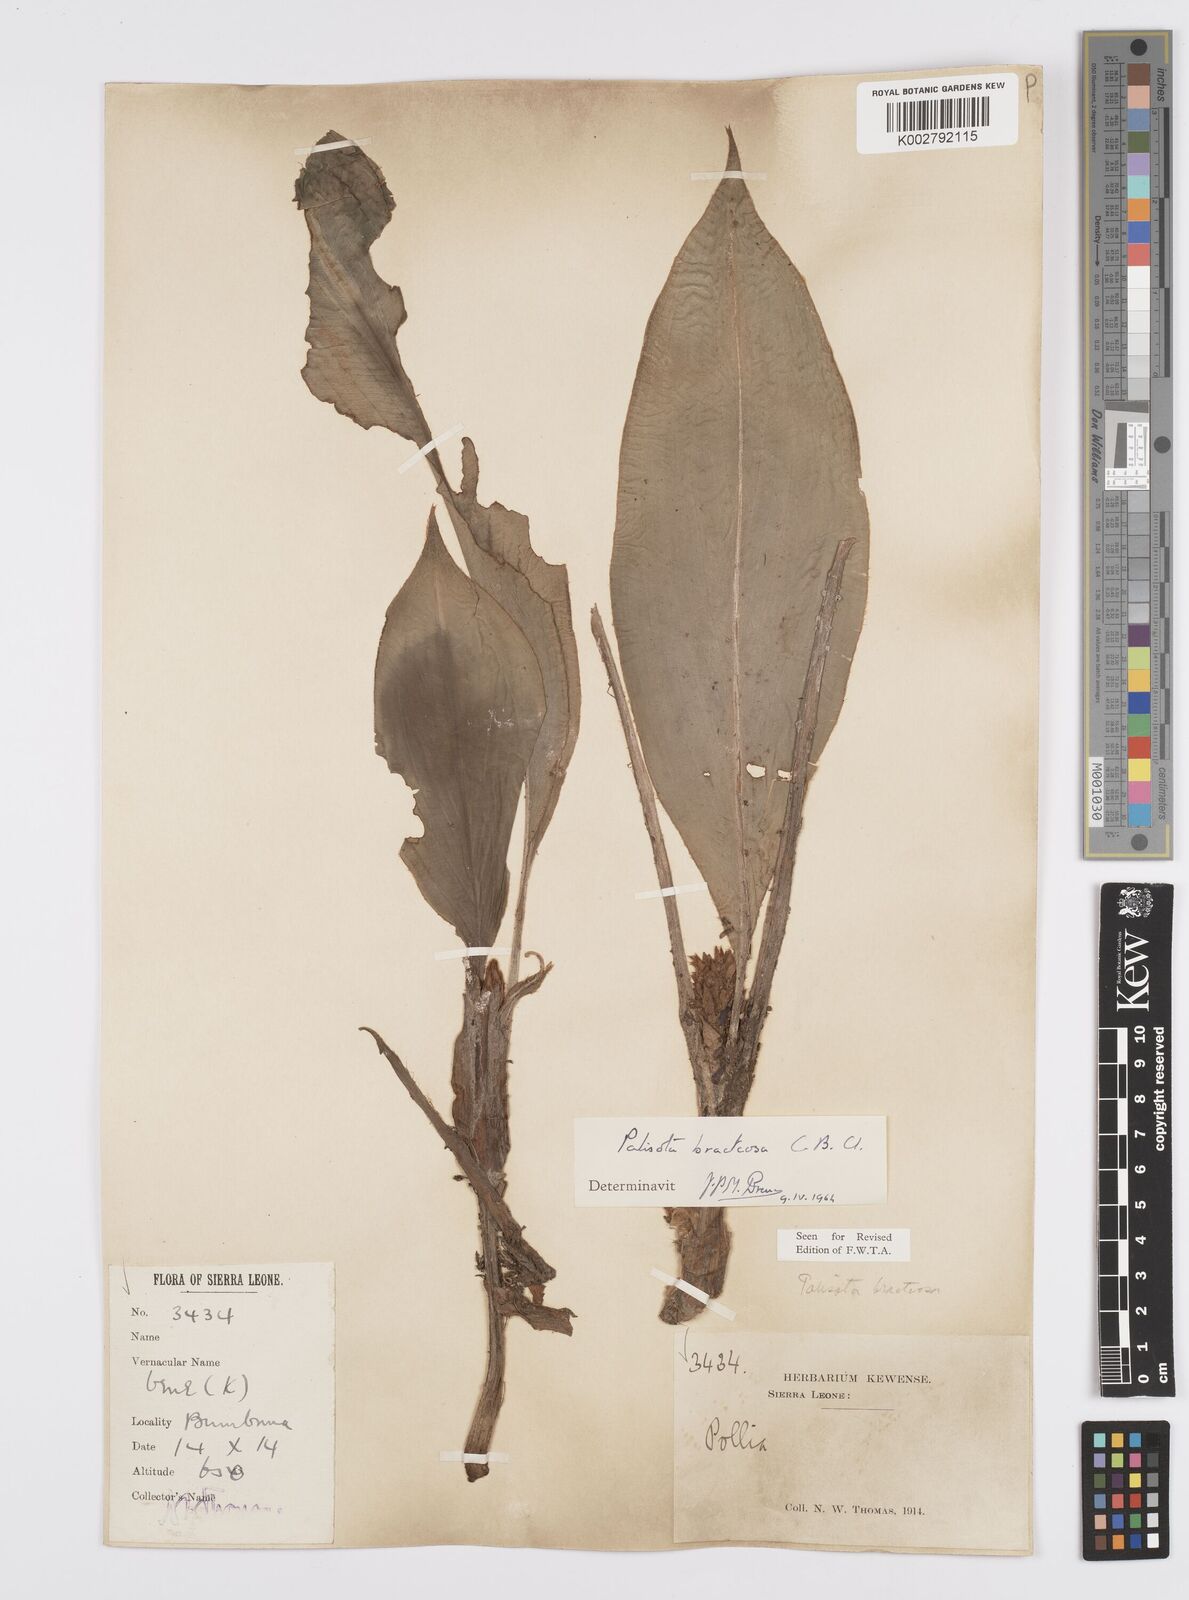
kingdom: Plantae
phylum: Tracheophyta
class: Liliopsida
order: Commelinales
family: Commelinaceae
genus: Palisota
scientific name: Palisota bracteosa
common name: Palisota
